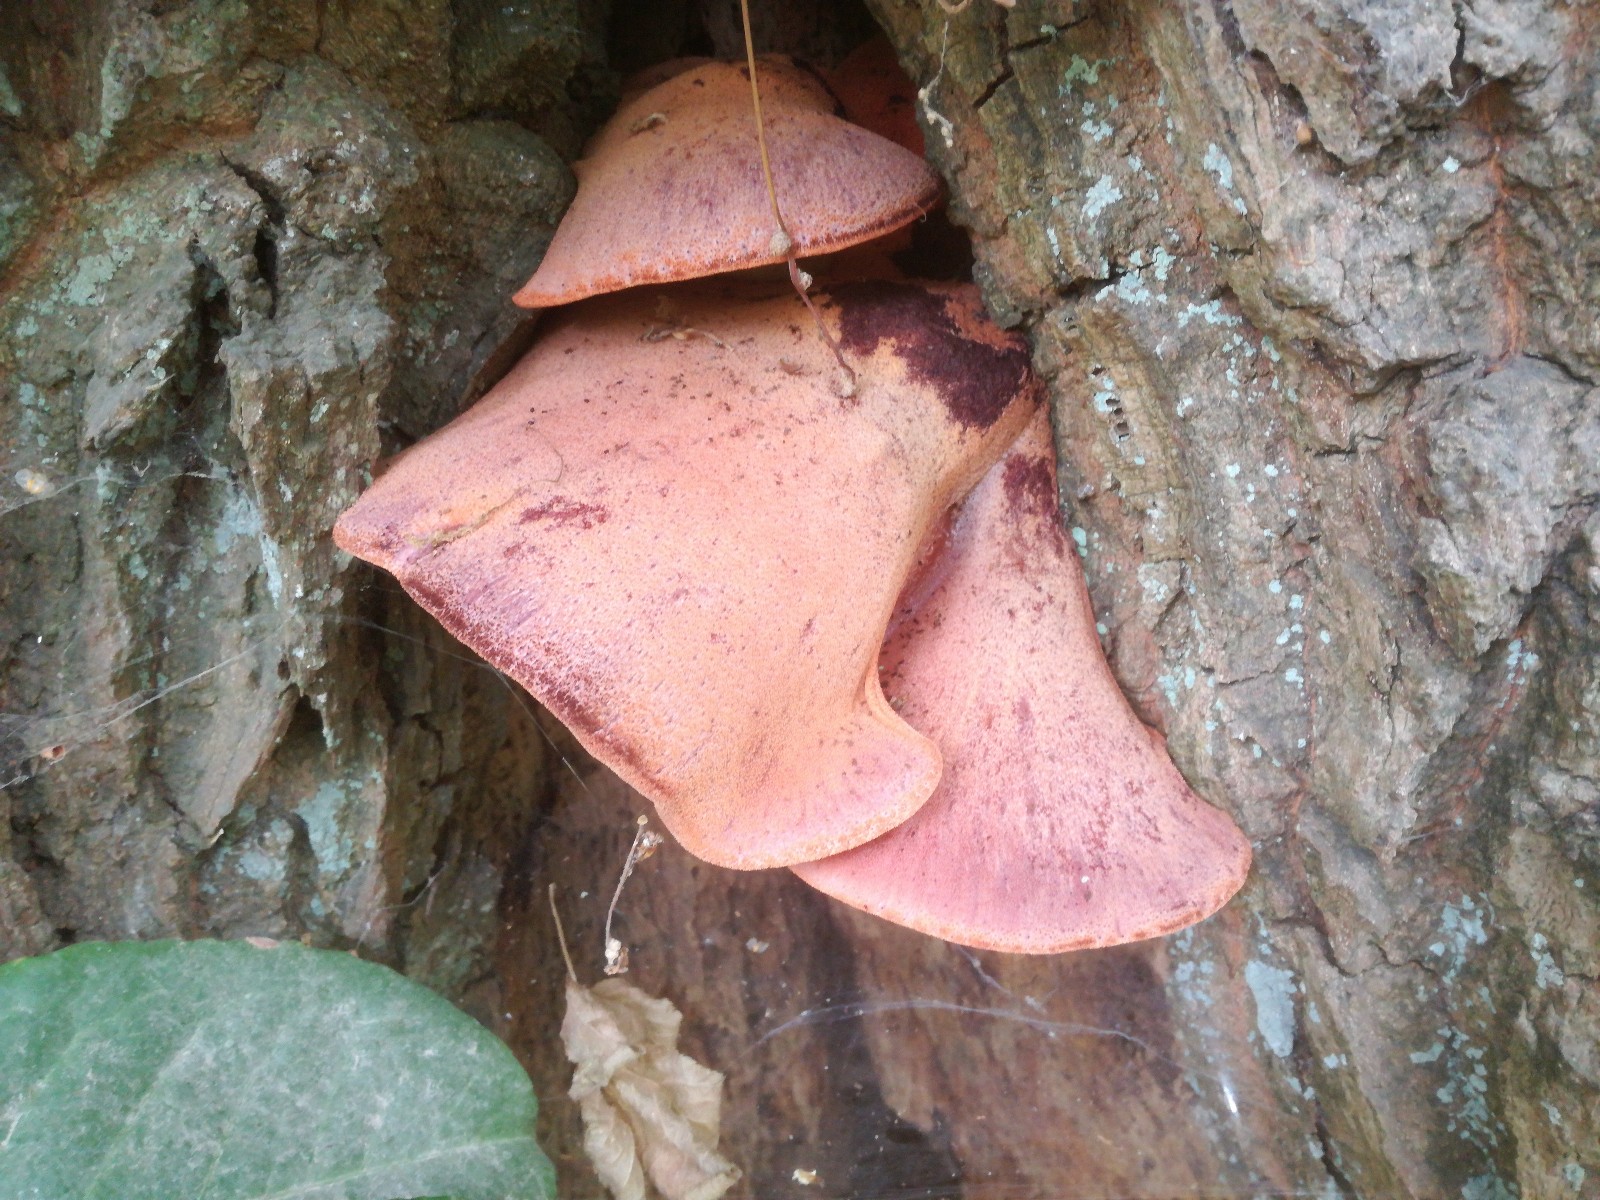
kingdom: Fungi
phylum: Basidiomycota
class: Agaricomycetes
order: Agaricales
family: Fistulinaceae
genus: Fistulina
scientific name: Fistulina hepatica
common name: oksetunge
